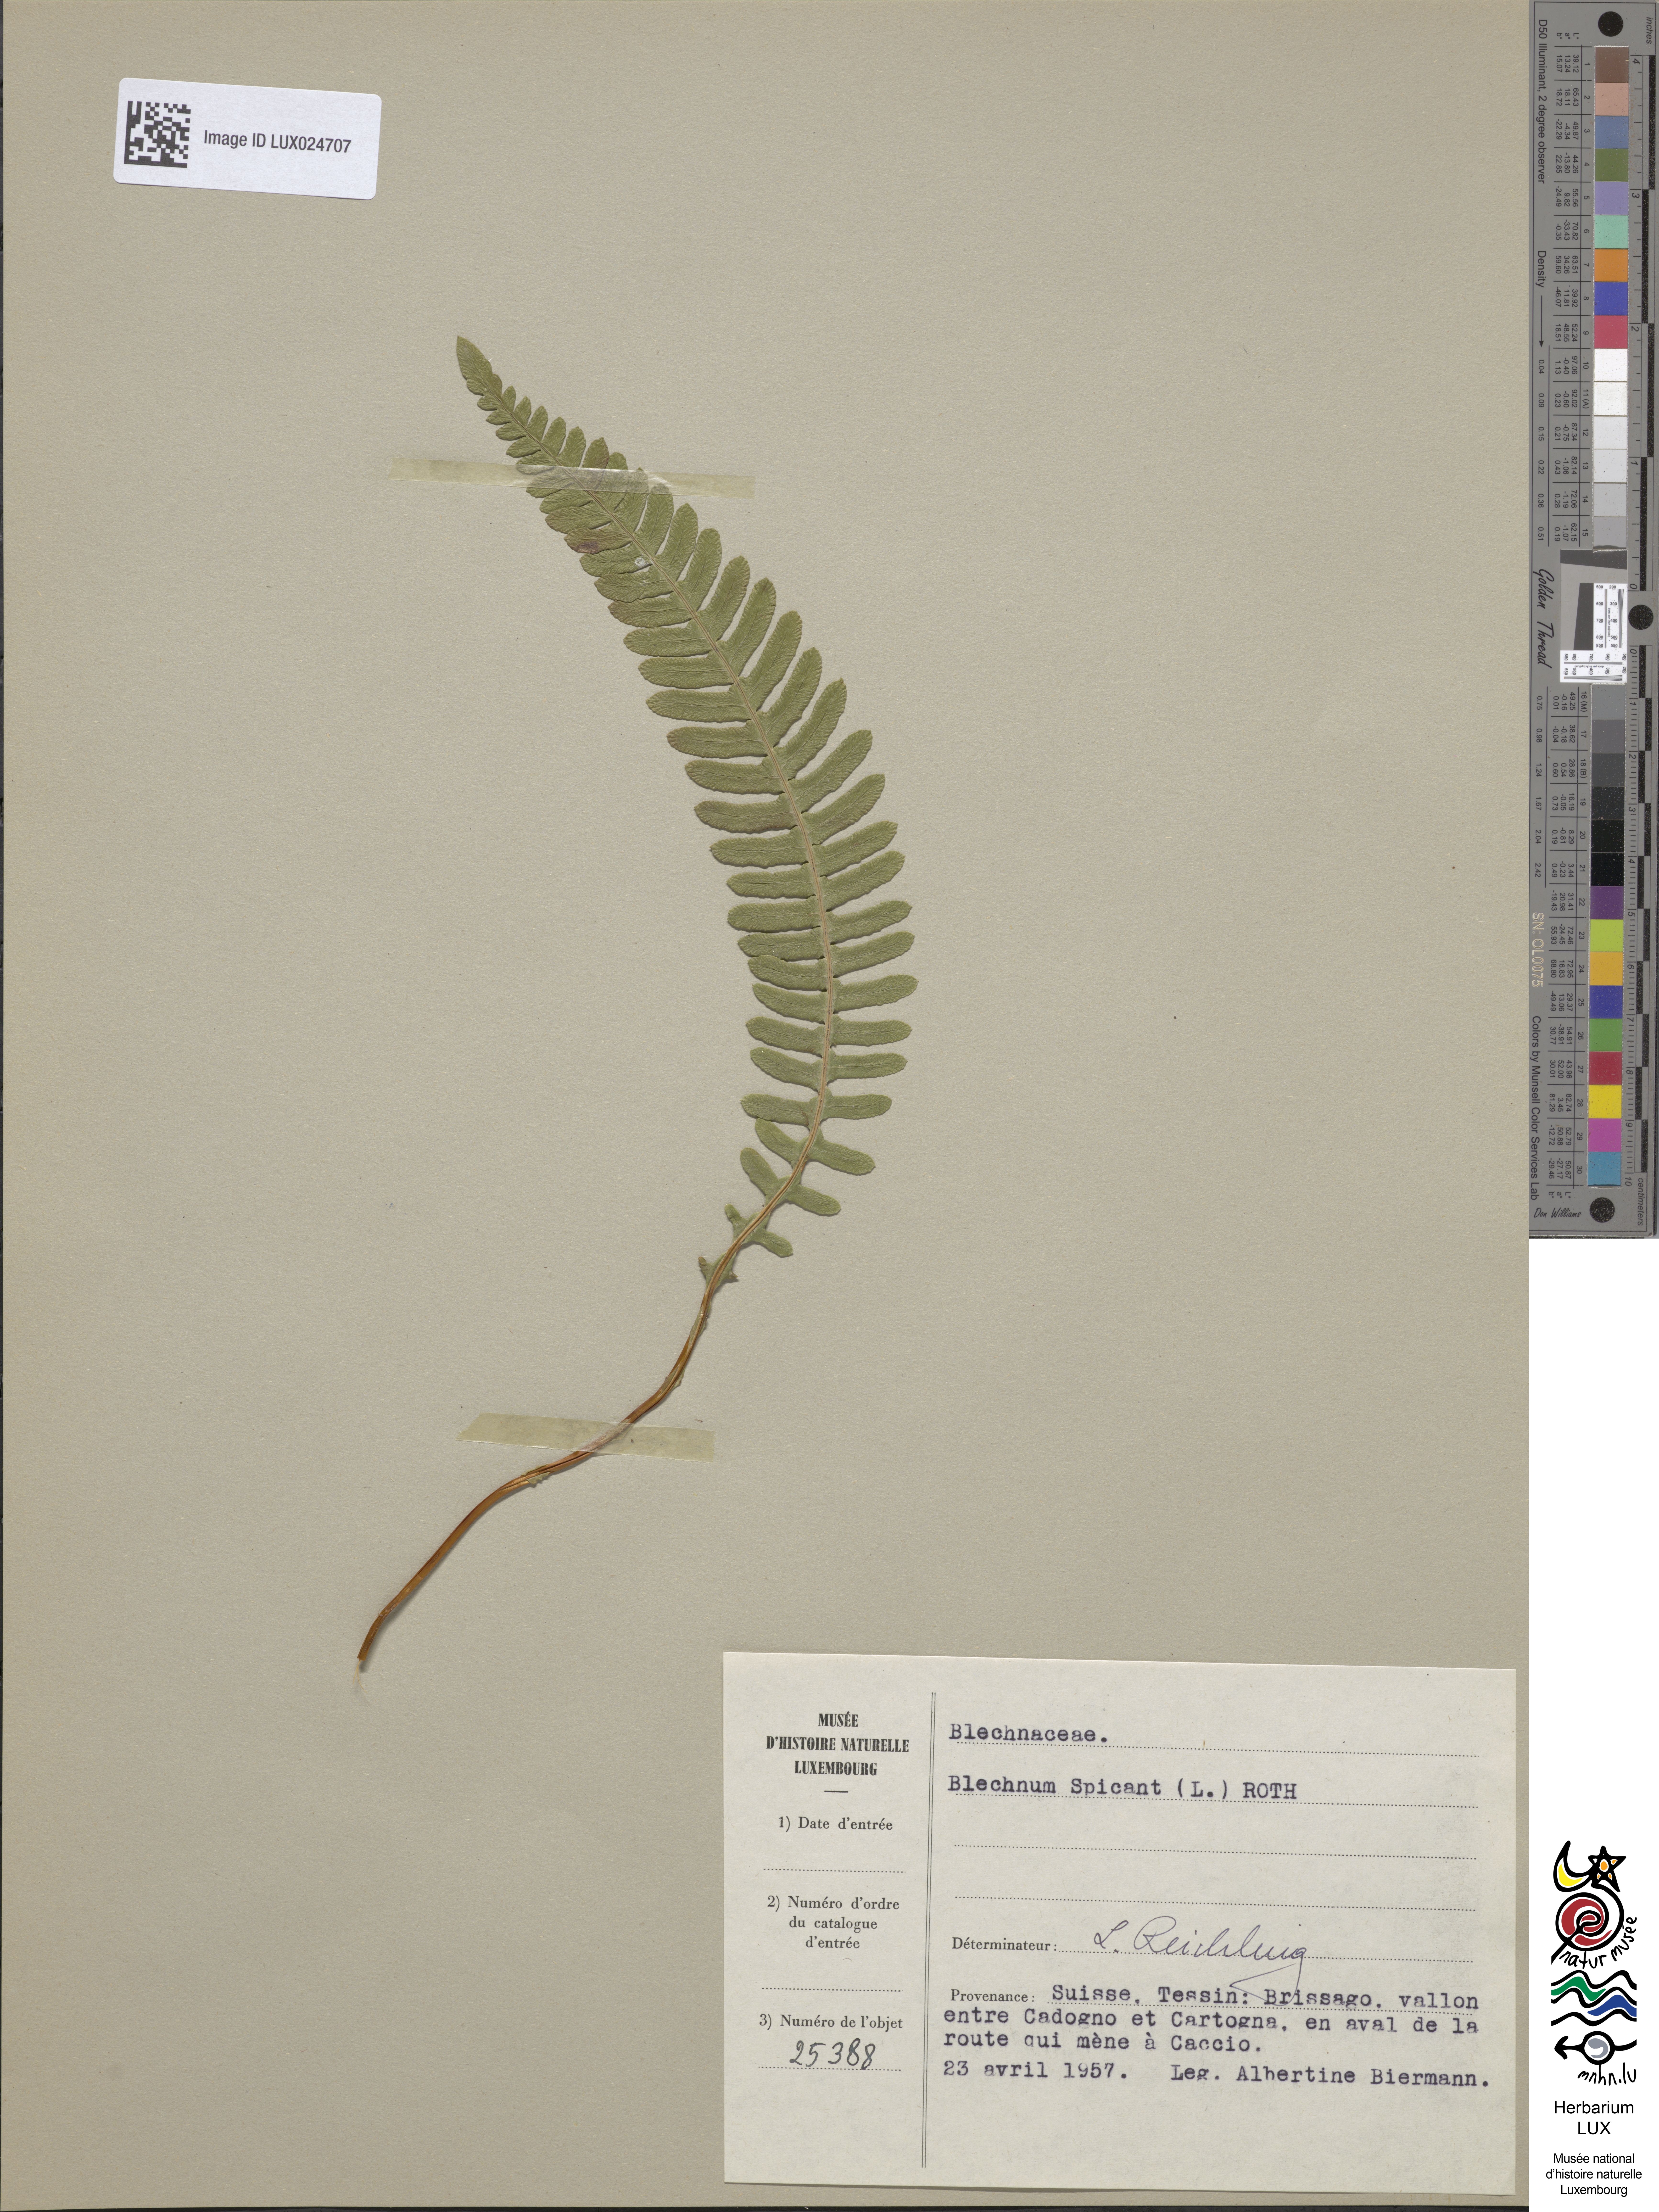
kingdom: Plantae
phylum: Tracheophyta
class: Polypodiopsida
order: Polypodiales
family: Blechnaceae
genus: Struthiopteris
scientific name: Struthiopteris spicant
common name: Deer fern
